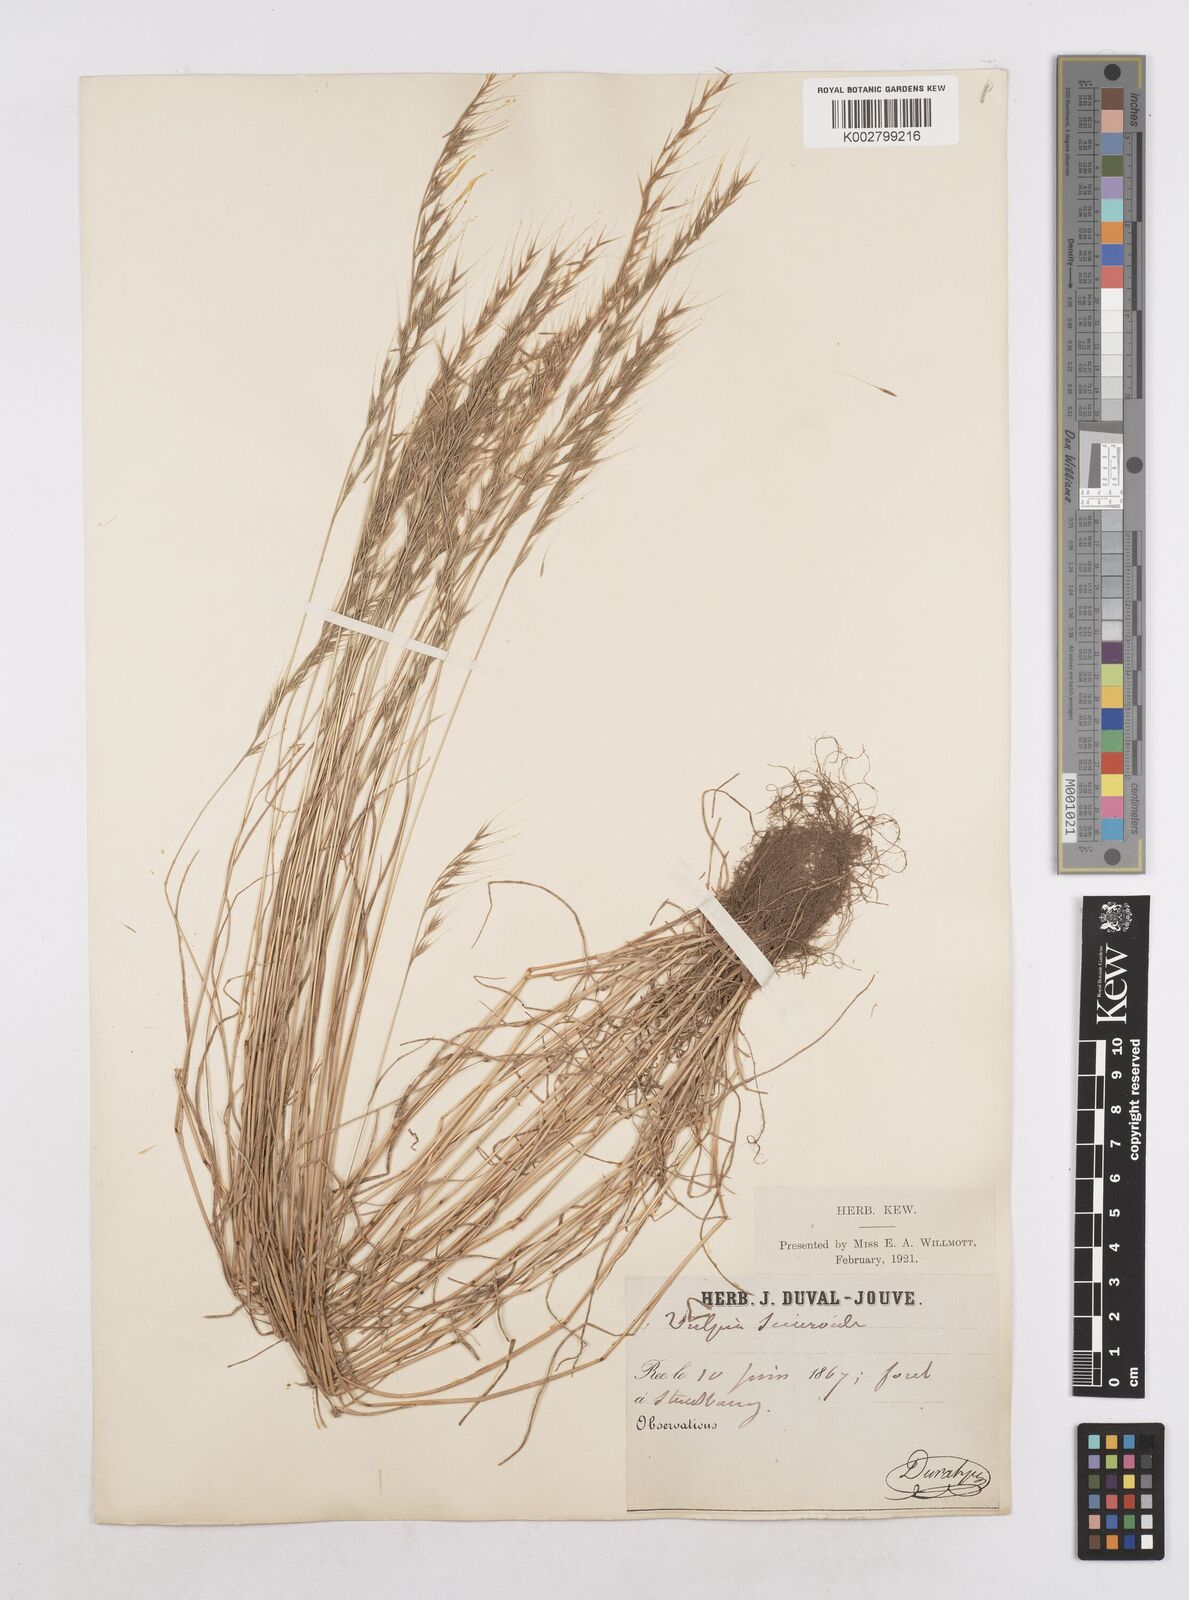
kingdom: Plantae
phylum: Tracheophyta
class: Liliopsida
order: Poales
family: Poaceae
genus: Festuca
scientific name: Festuca bromoides
